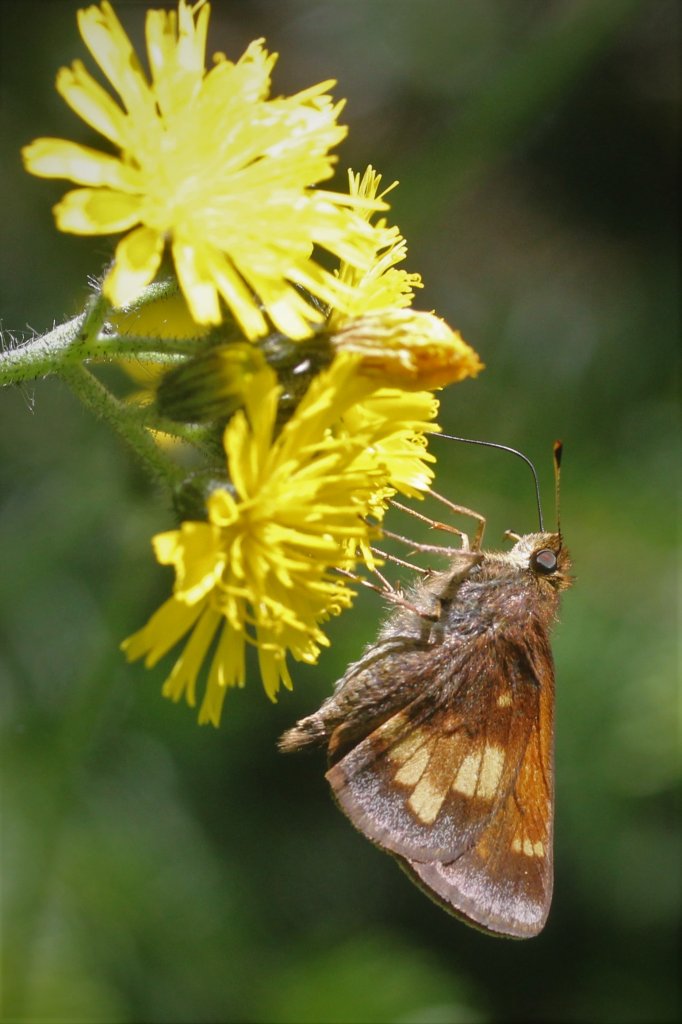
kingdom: Animalia
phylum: Arthropoda
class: Insecta
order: Lepidoptera
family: Hesperiidae
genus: Lon
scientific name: Lon hobomok
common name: Hobomok Skipper
